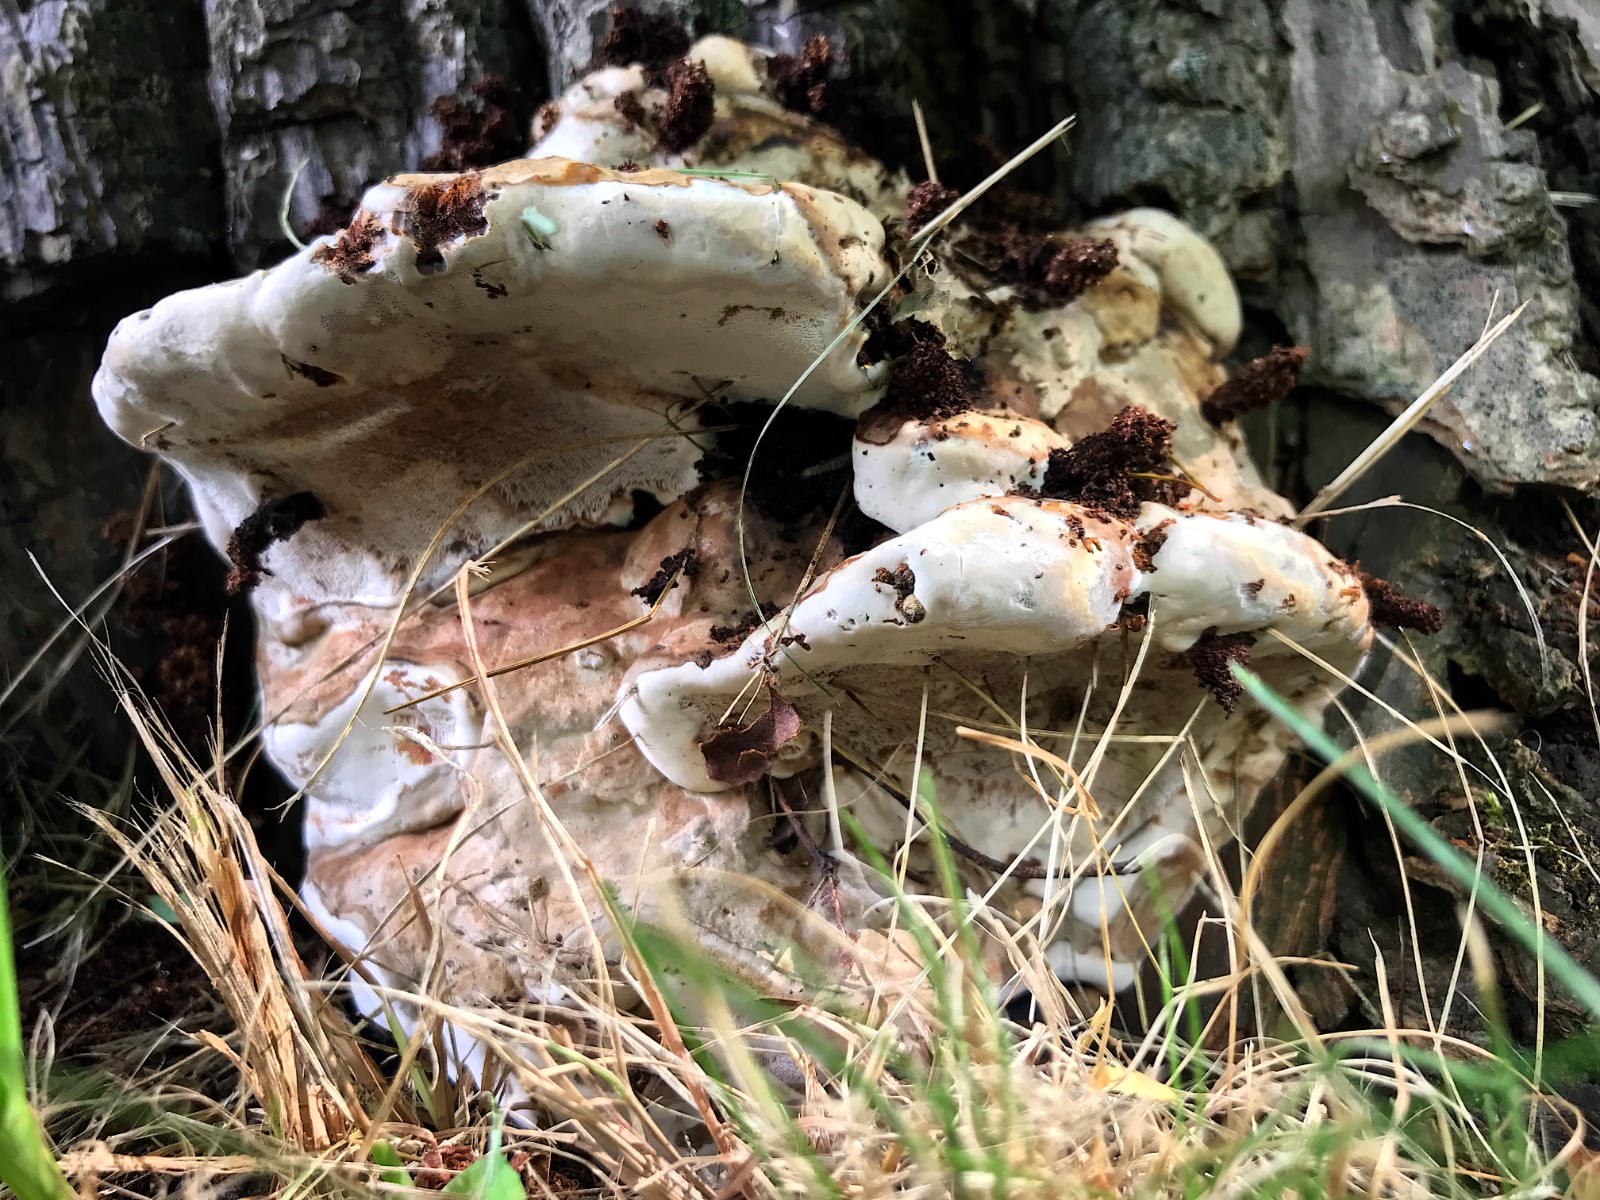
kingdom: Fungi
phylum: Basidiomycota
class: Agaricomycetes
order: Polyporales
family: Polyporaceae
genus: Ganoderma
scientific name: Ganoderma applanatum
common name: flad lakporesvamp
